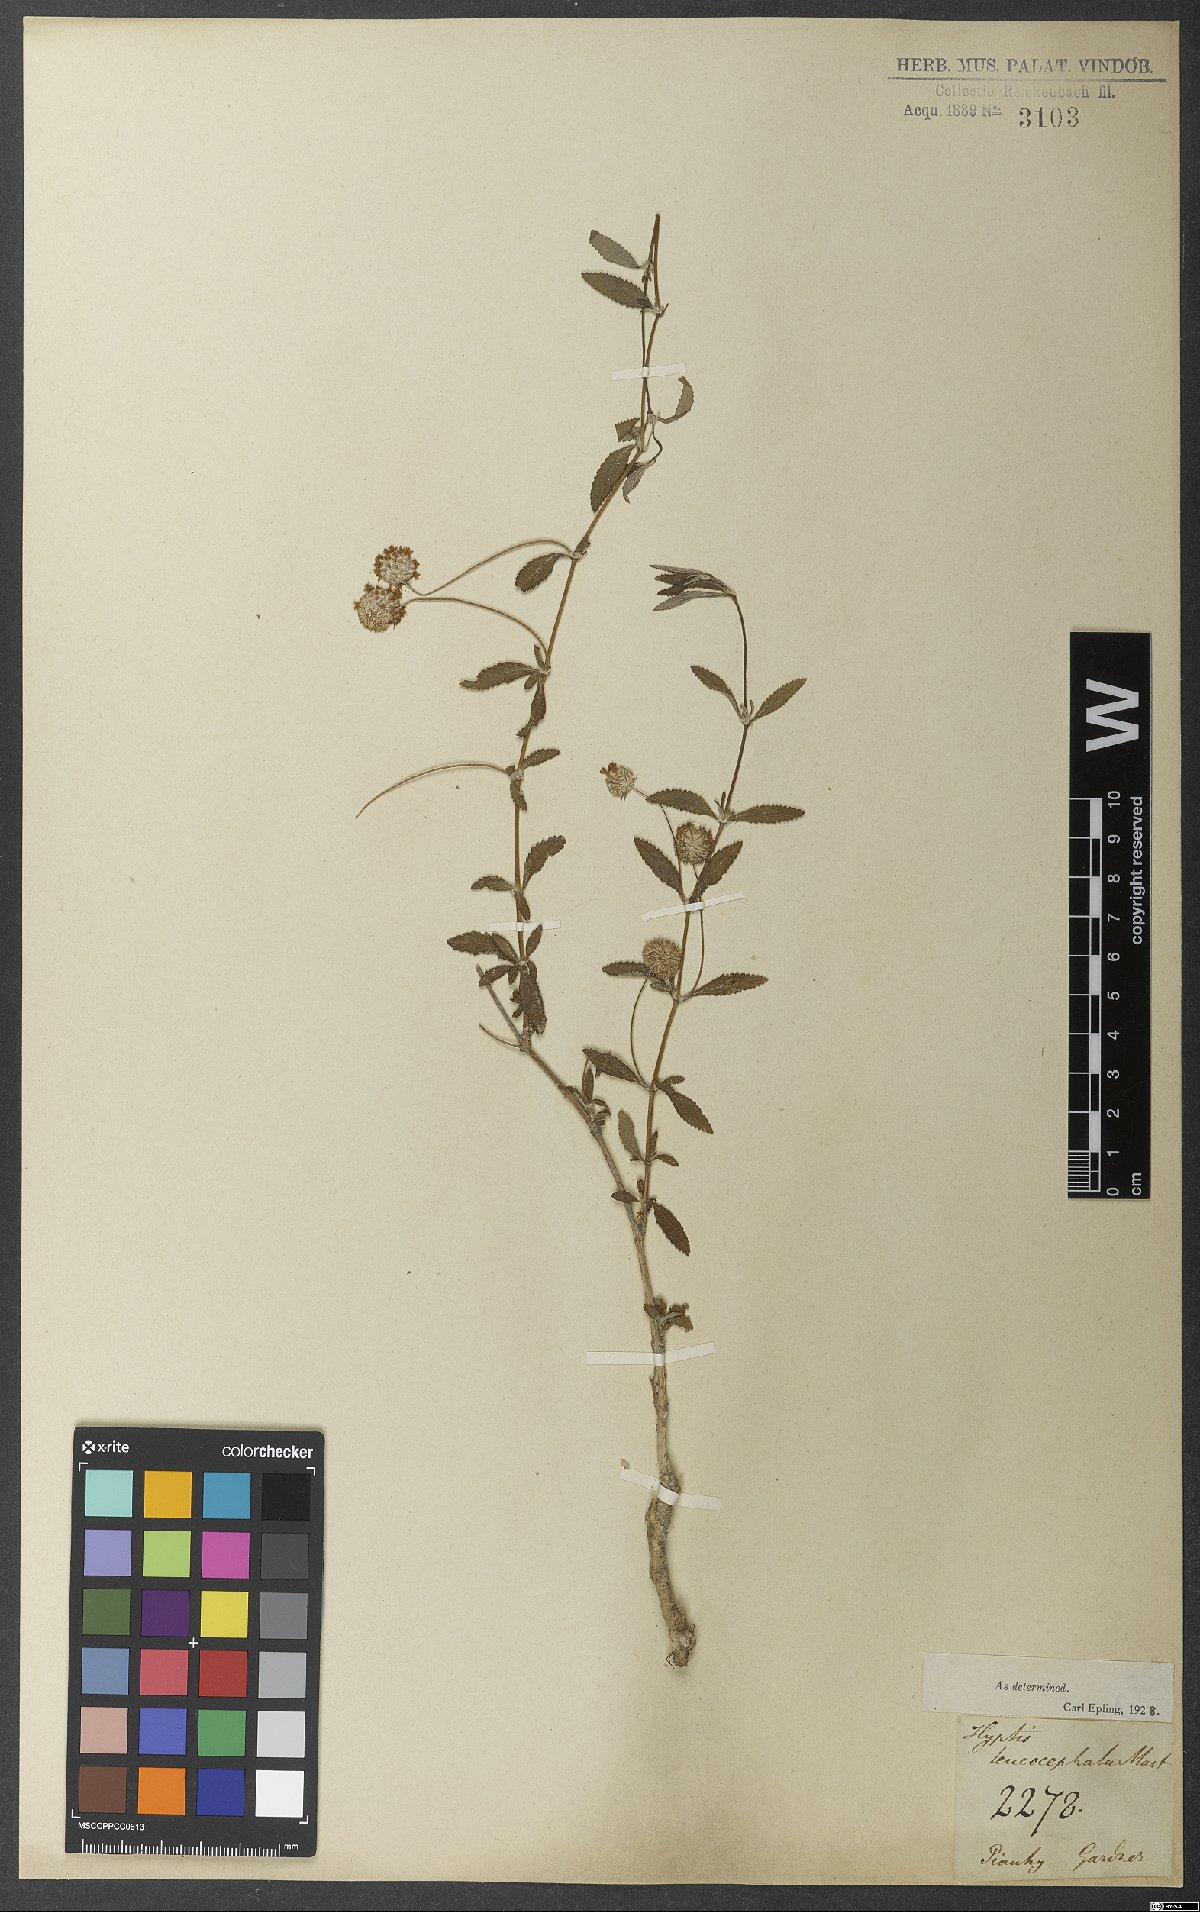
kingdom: Plantae
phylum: Tracheophyta
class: Magnoliopsida
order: Lamiales
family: Lamiaceae
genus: Martianthus
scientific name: Martianthus leucocephalus
